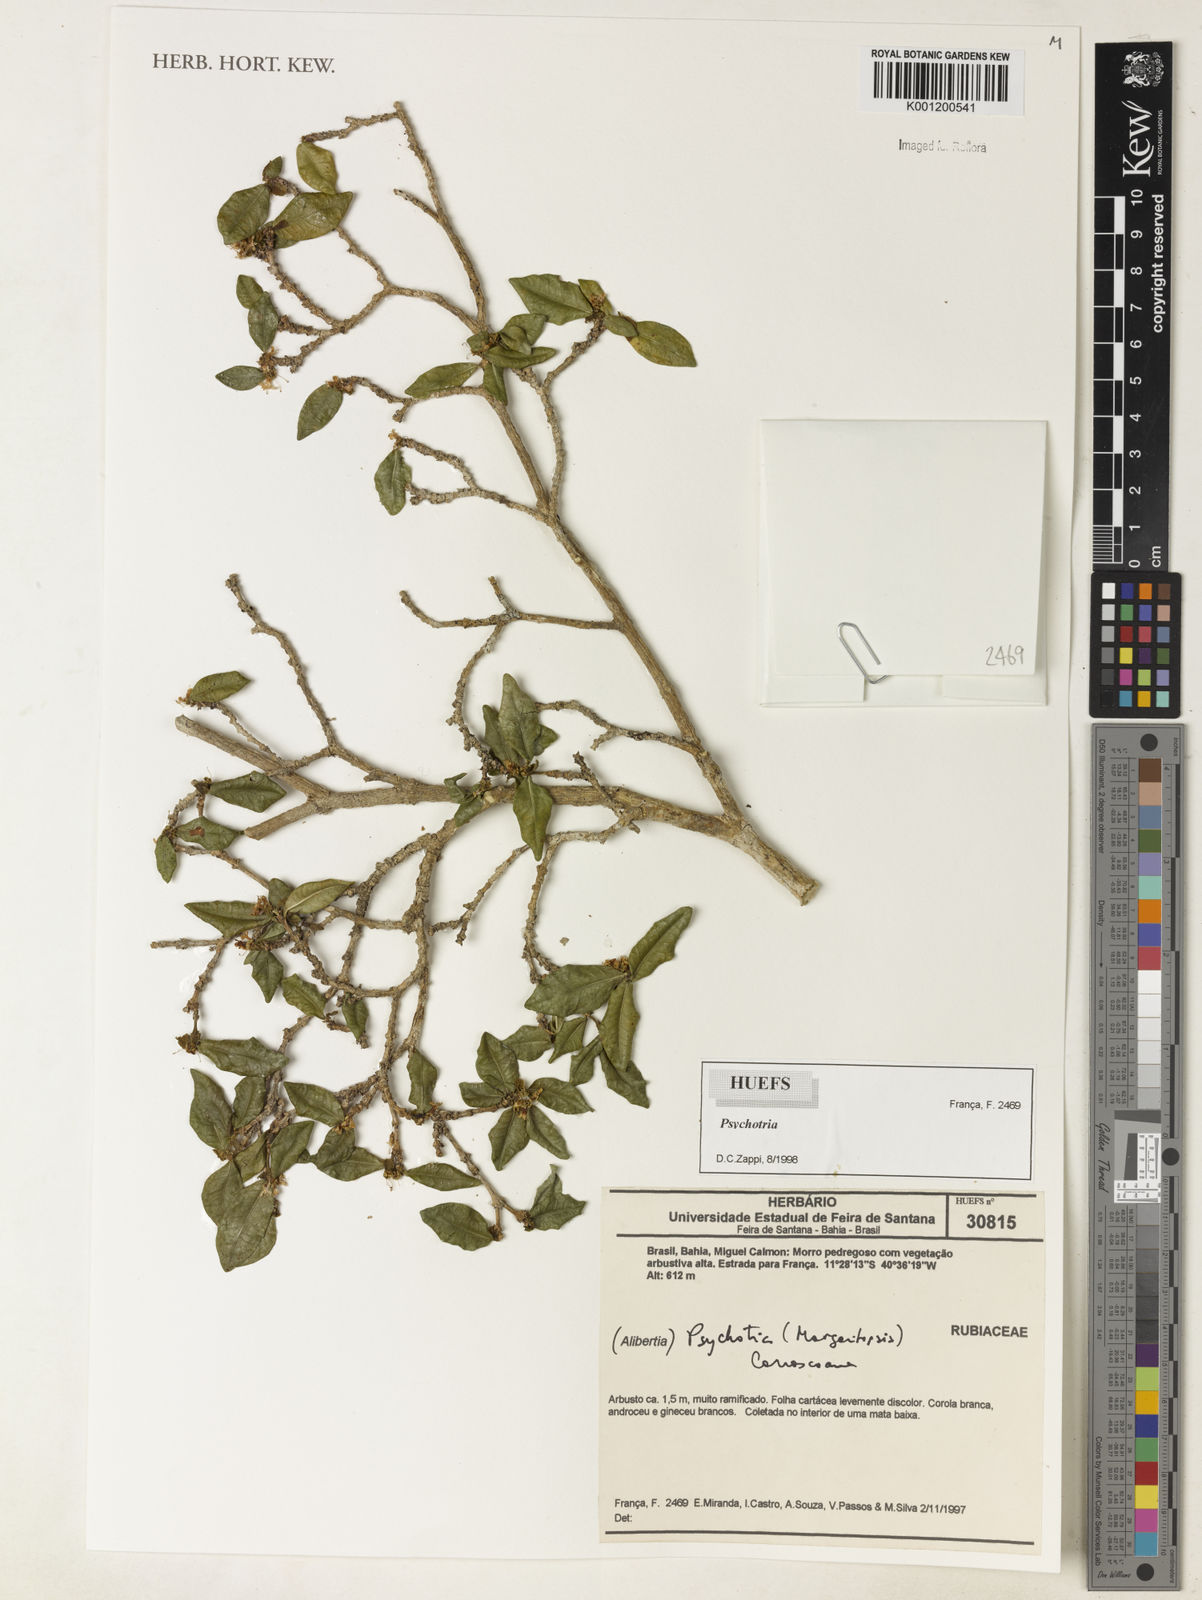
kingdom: Plantae
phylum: Tracheophyta
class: Magnoliopsida
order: Gentianales
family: Rubiaceae
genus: Psychotria
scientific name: Psychotria
